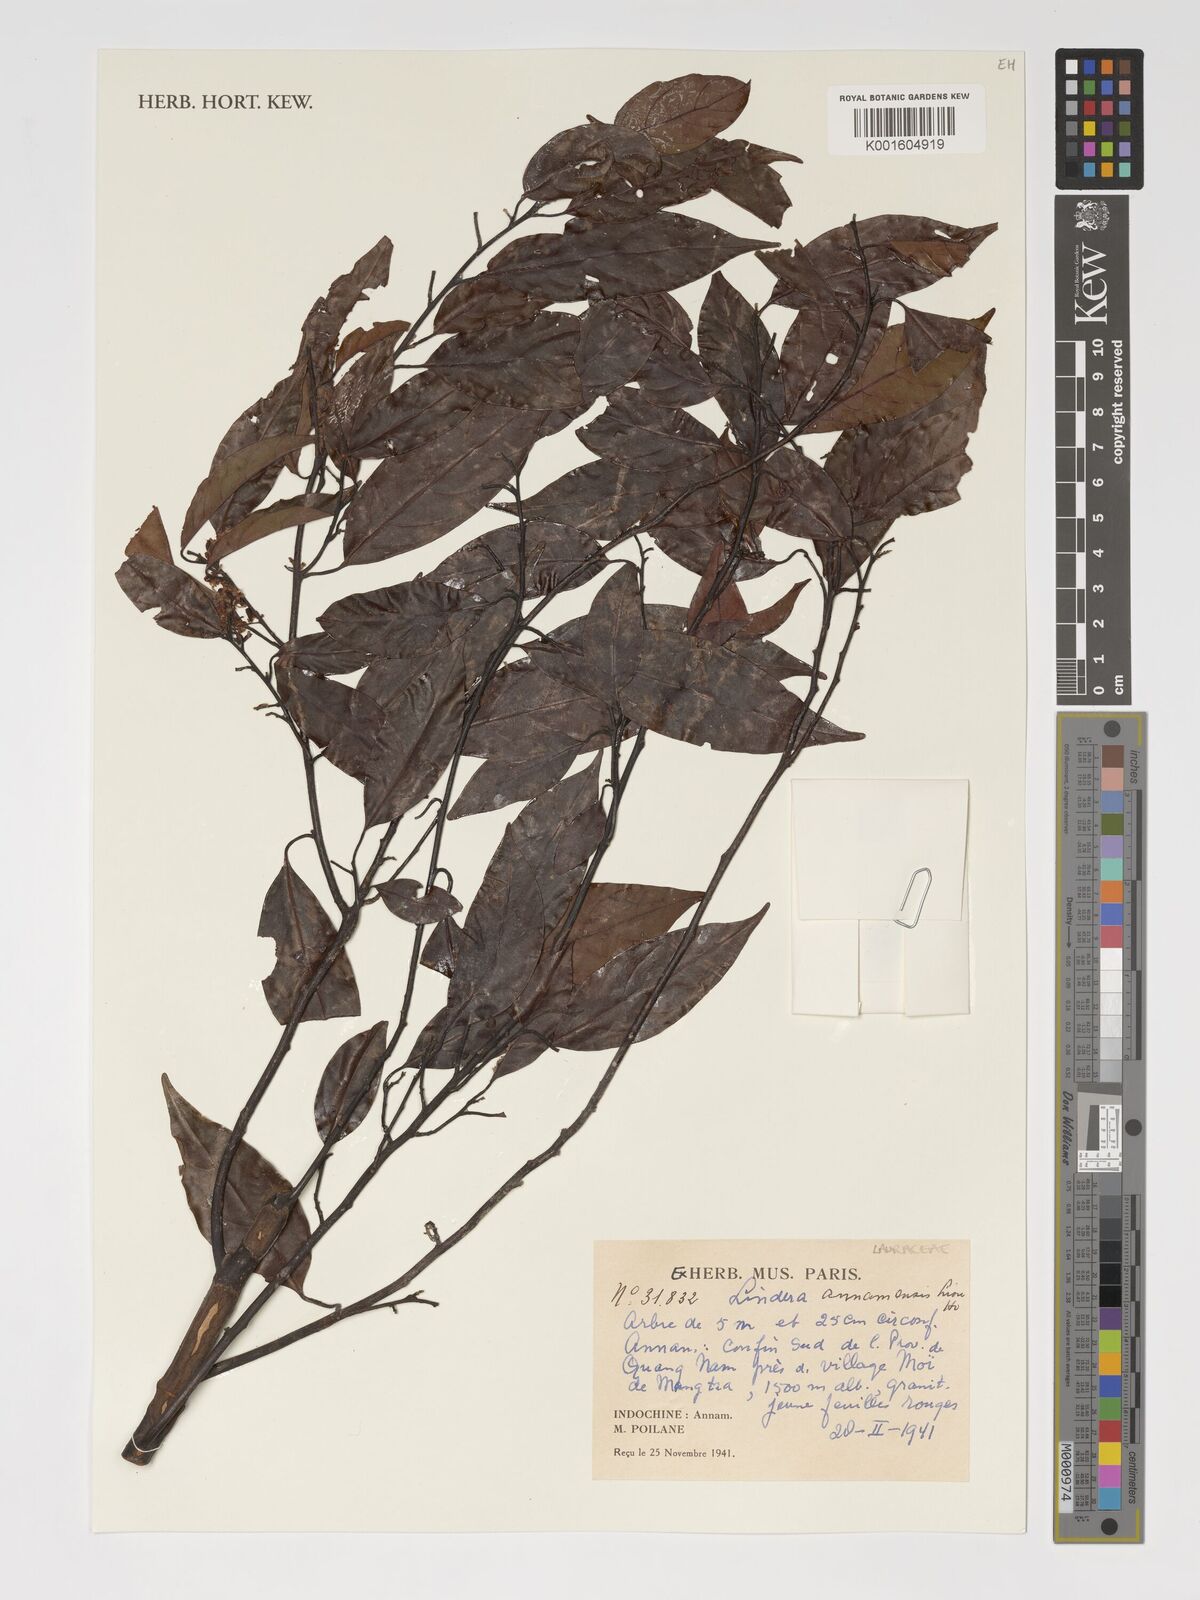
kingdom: Plantae
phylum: Tracheophyta
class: Magnoliopsida
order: Laurales
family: Lauraceae
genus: Lindera
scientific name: Lindera annamensis
